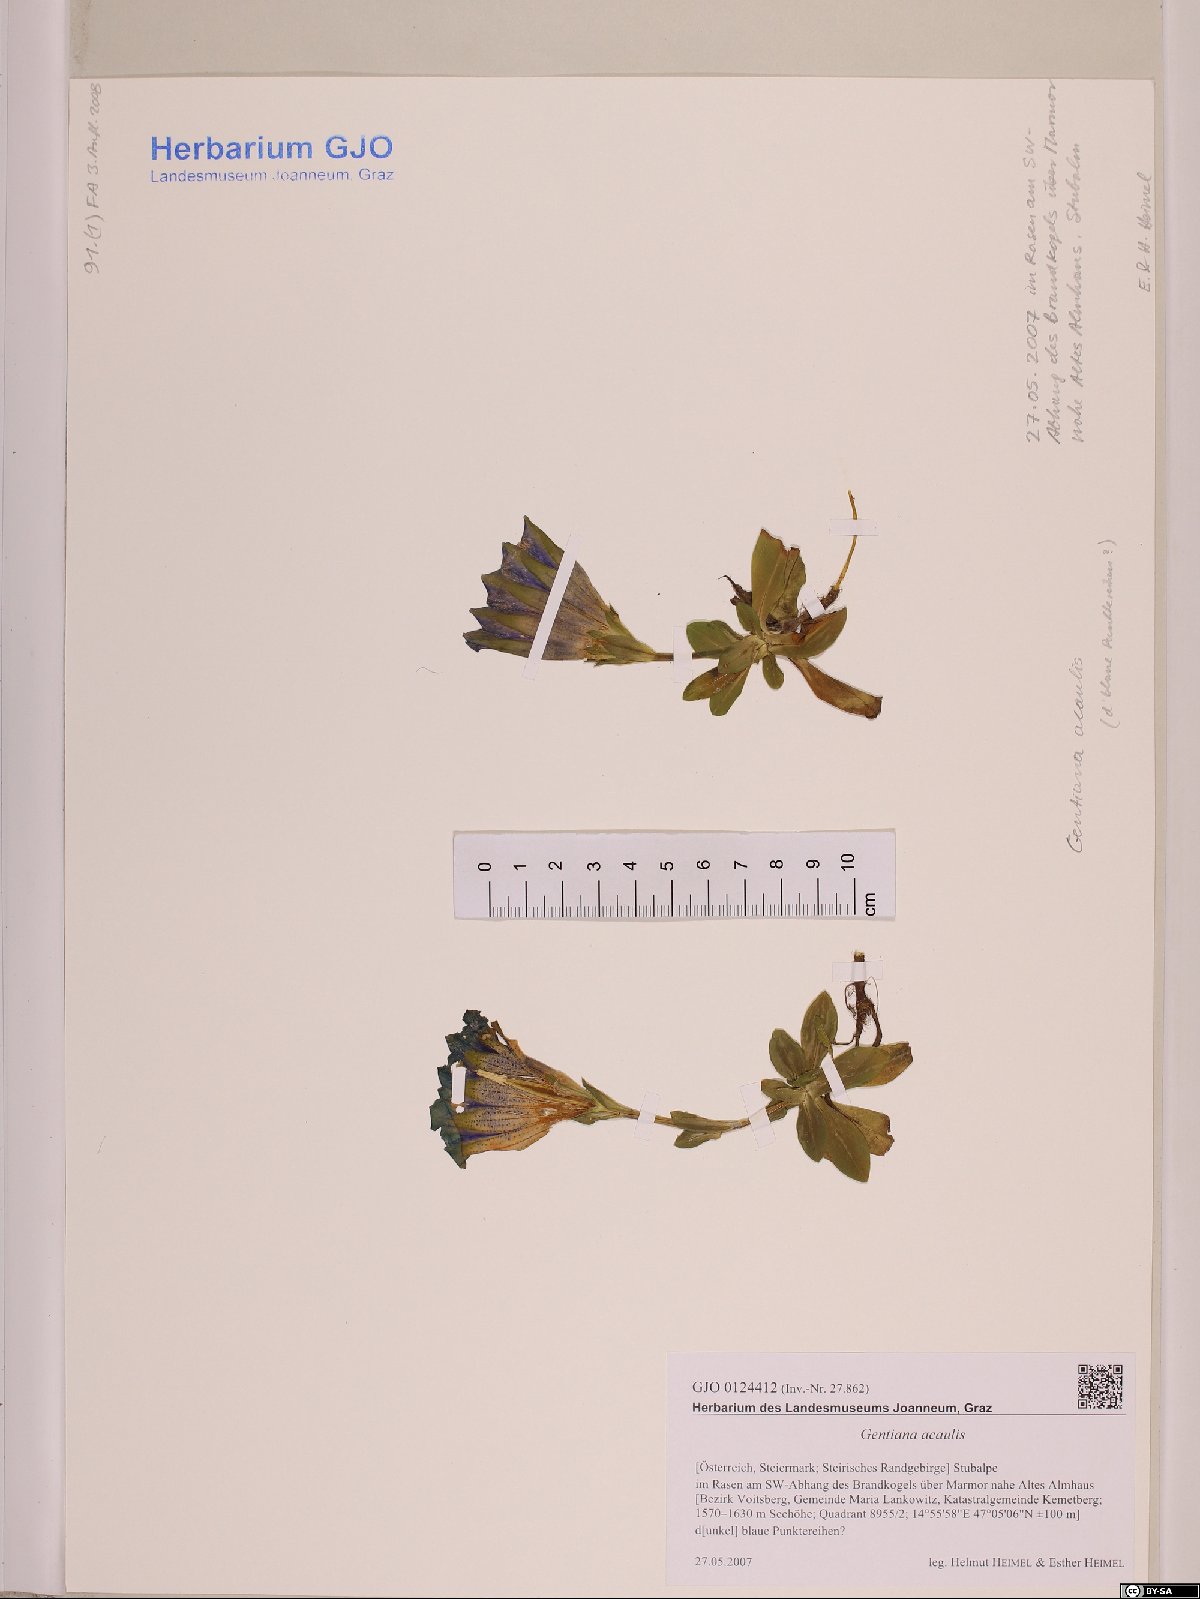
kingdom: Plantae
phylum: Tracheophyta
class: Magnoliopsida
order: Gentianales
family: Gentianaceae
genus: Gentiana
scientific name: Gentiana acaulis
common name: Trumpet gentian
